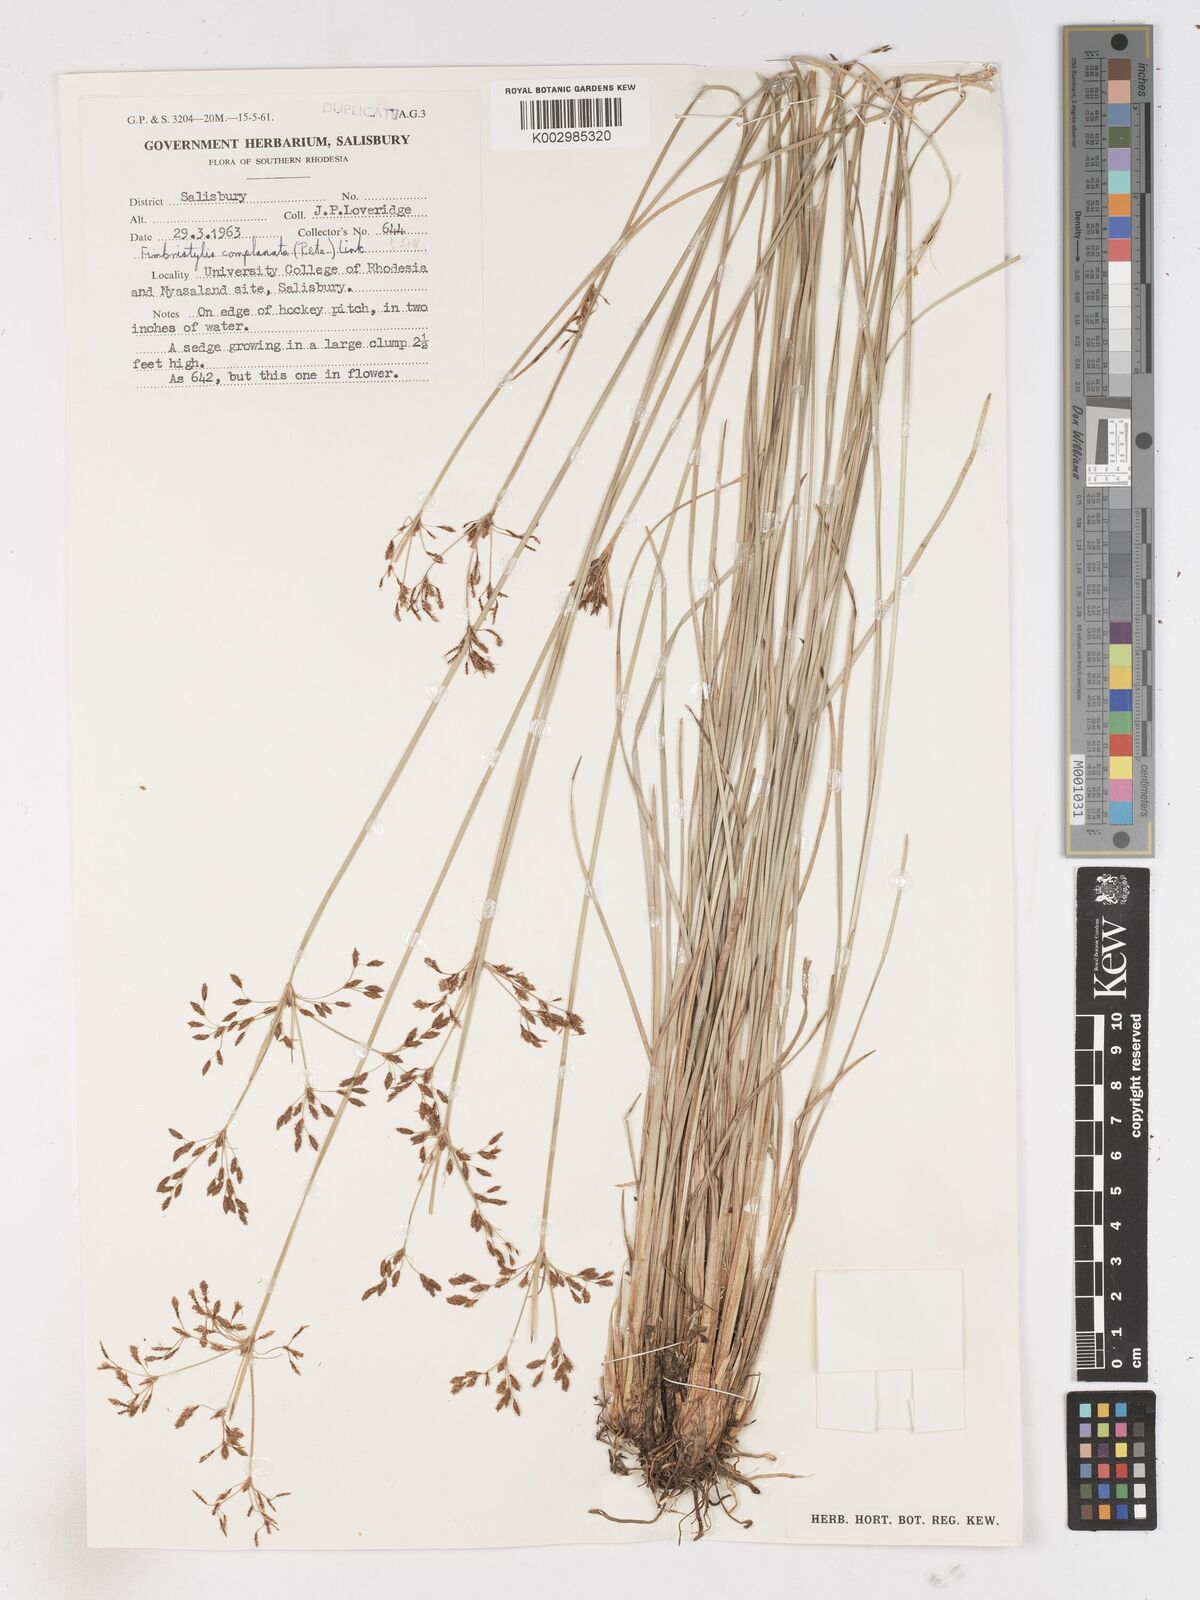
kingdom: Plantae
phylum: Tracheophyta
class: Liliopsida
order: Poales
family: Cyperaceae
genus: Fimbristylis
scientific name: Fimbristylis complanata
